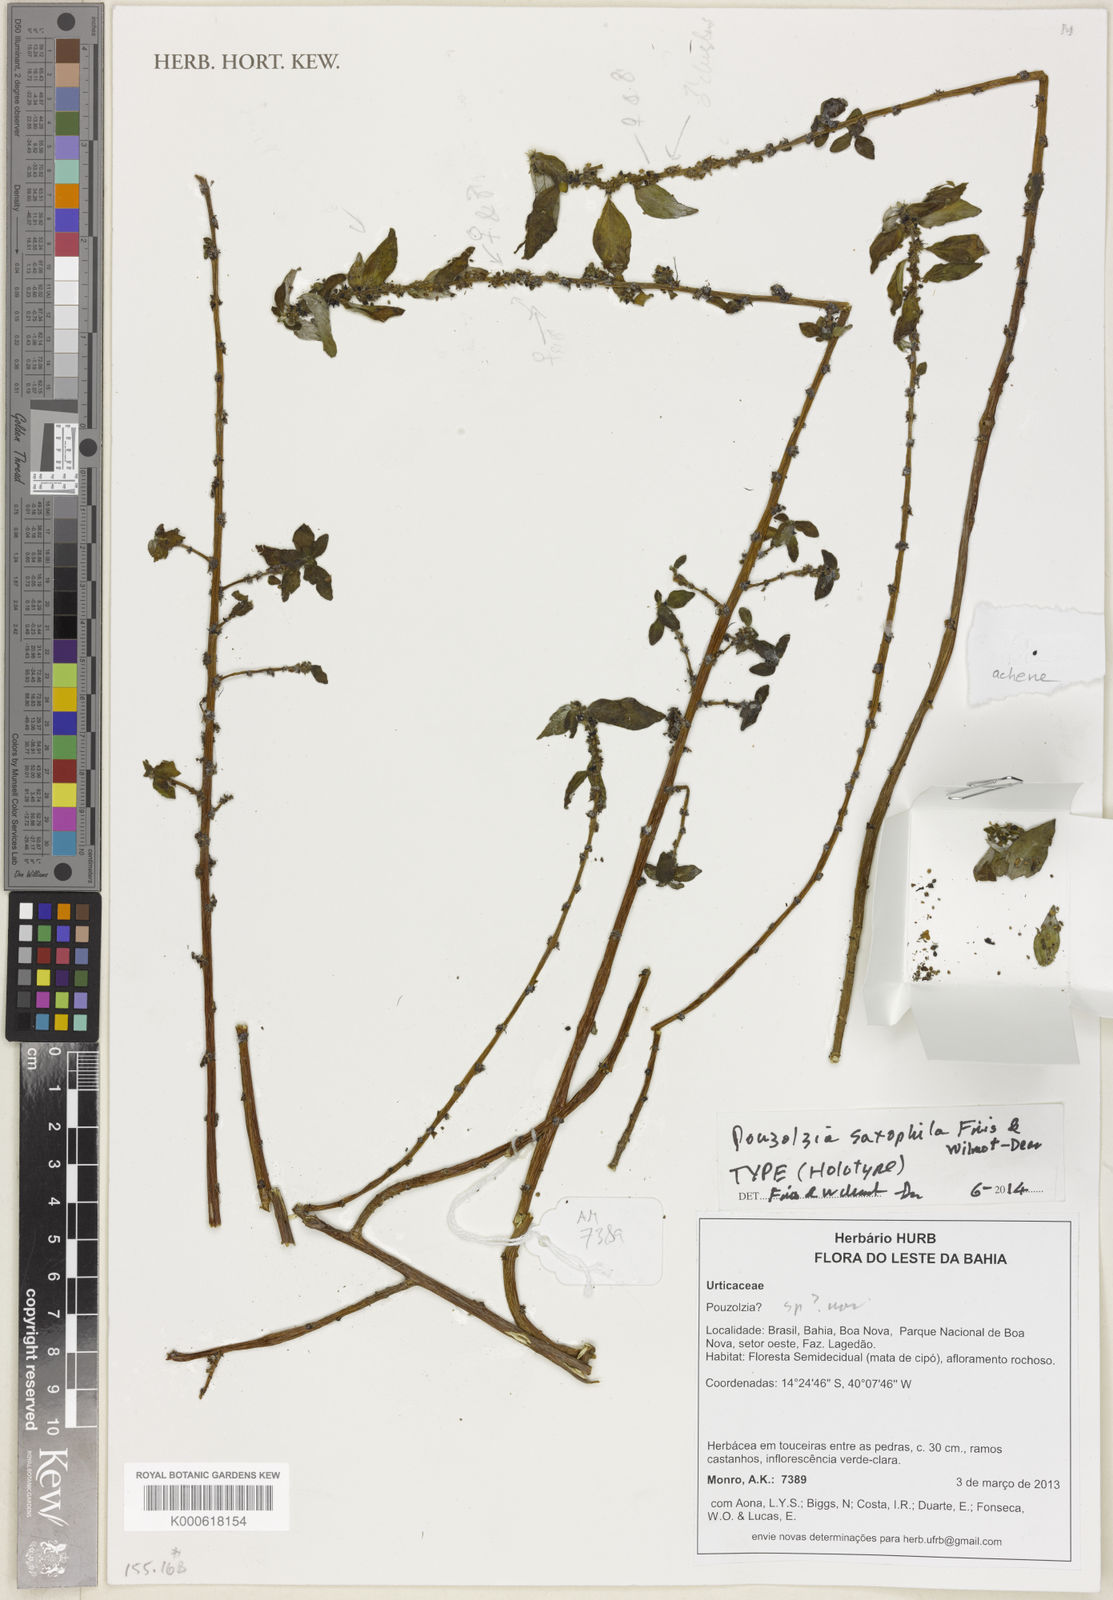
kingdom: Plantae
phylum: Tracheophyta
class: Magnoliopsida
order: Rosales
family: Urticaceae
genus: Pouzolzia
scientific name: Pouzolzia
